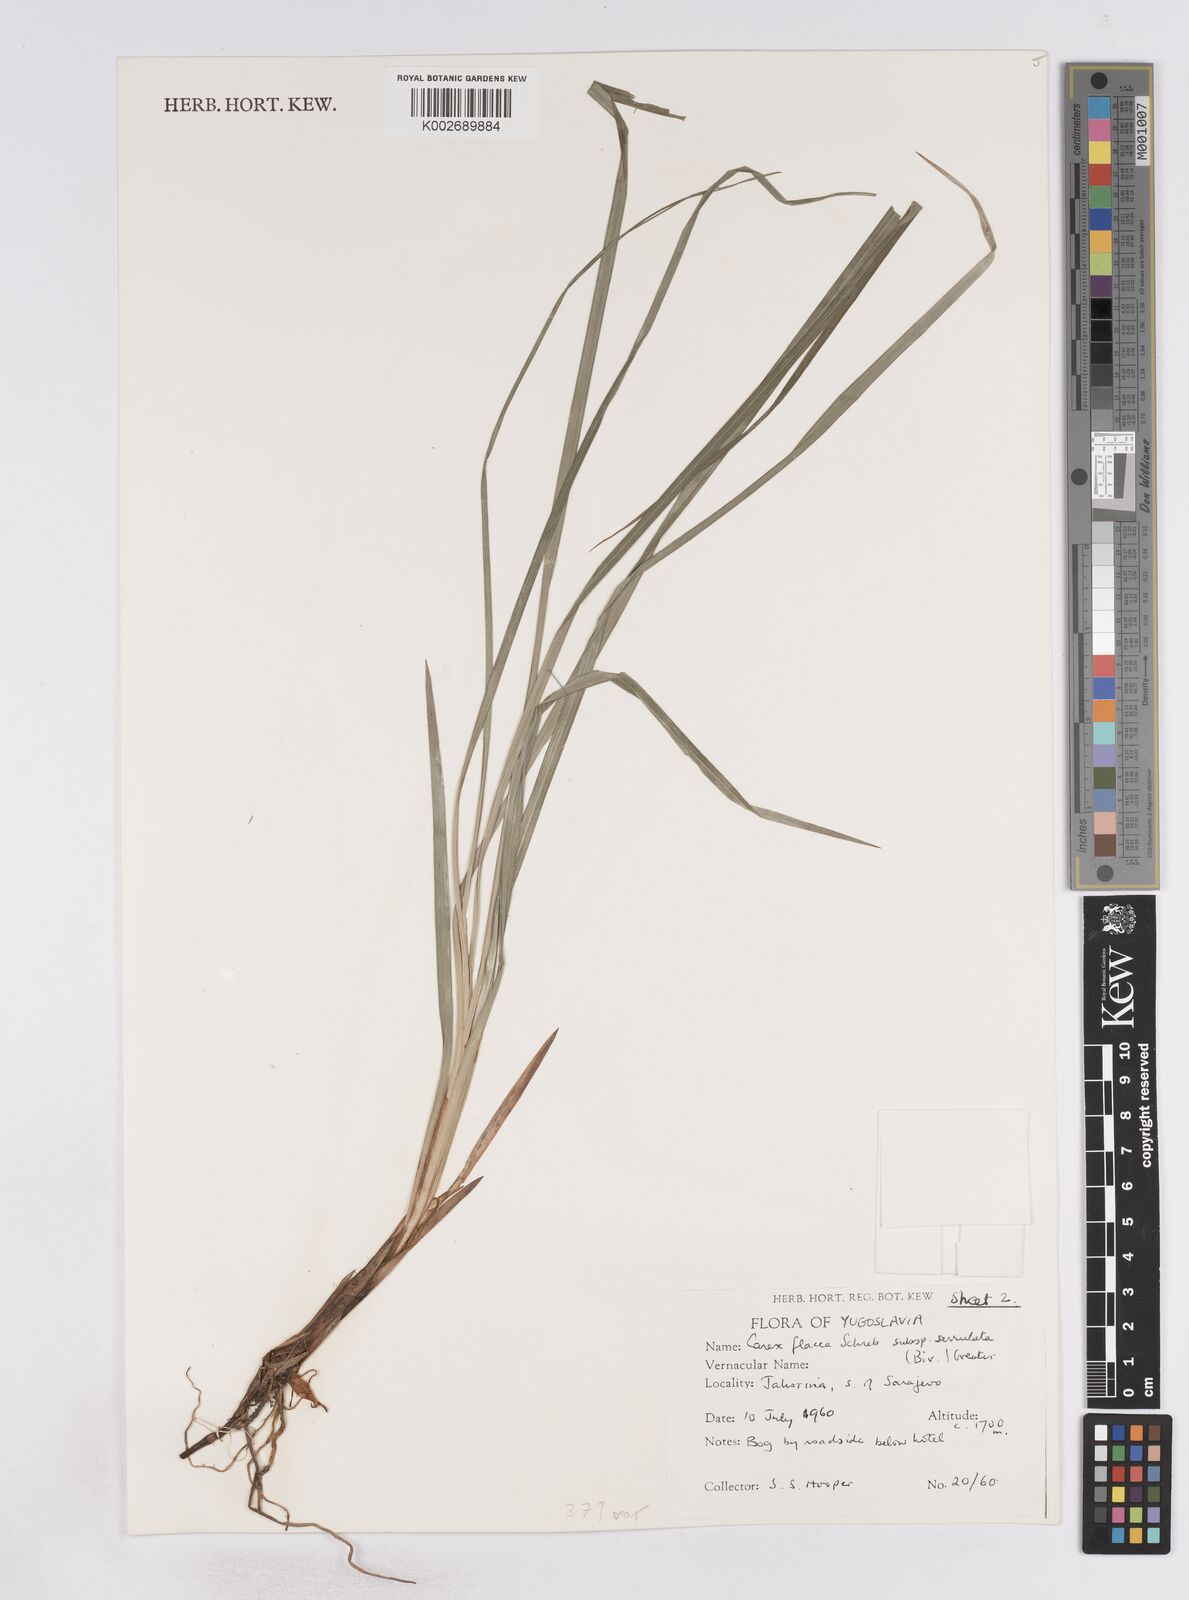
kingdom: Plantae
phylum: Tracheophyta
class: Liliopsida
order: Poales
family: Cyperaceae
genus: Carex
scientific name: Carex flacca
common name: Glaucous sedge
